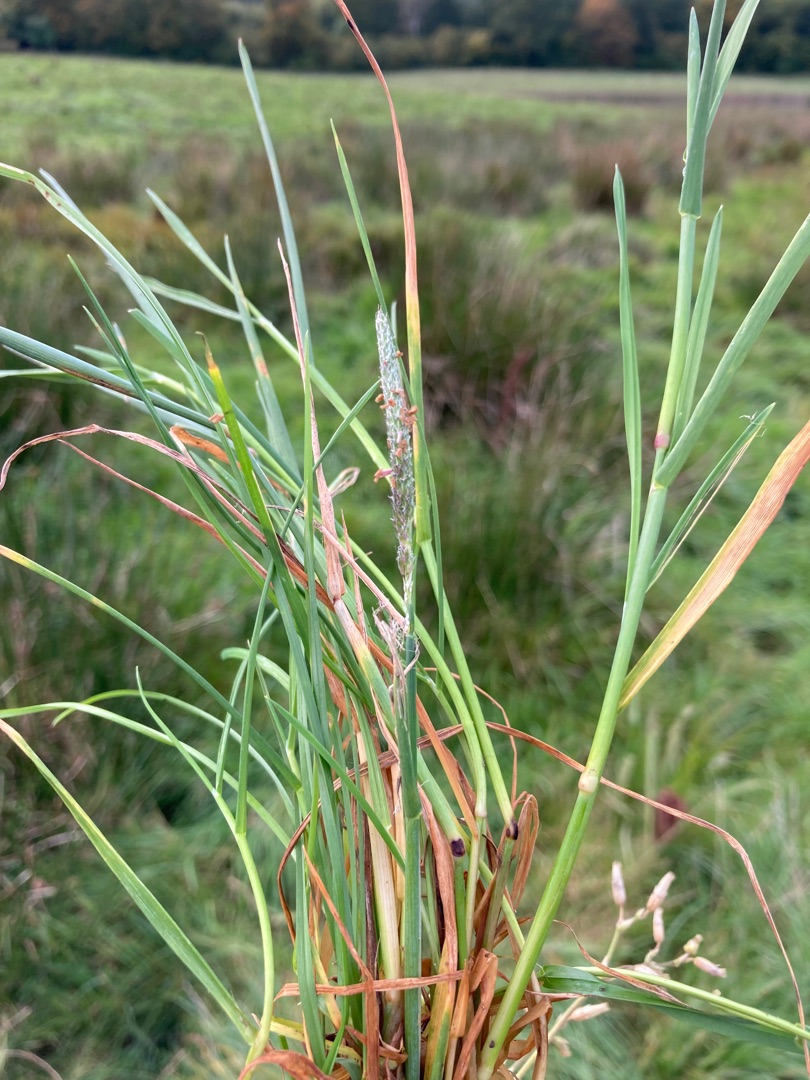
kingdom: Plantae
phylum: Tracheophyta
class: Liliopsida
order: Poales
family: Poaceae
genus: Alopecurus
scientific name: Alopecurus geniculatus
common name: Knæbøjet rævehale
